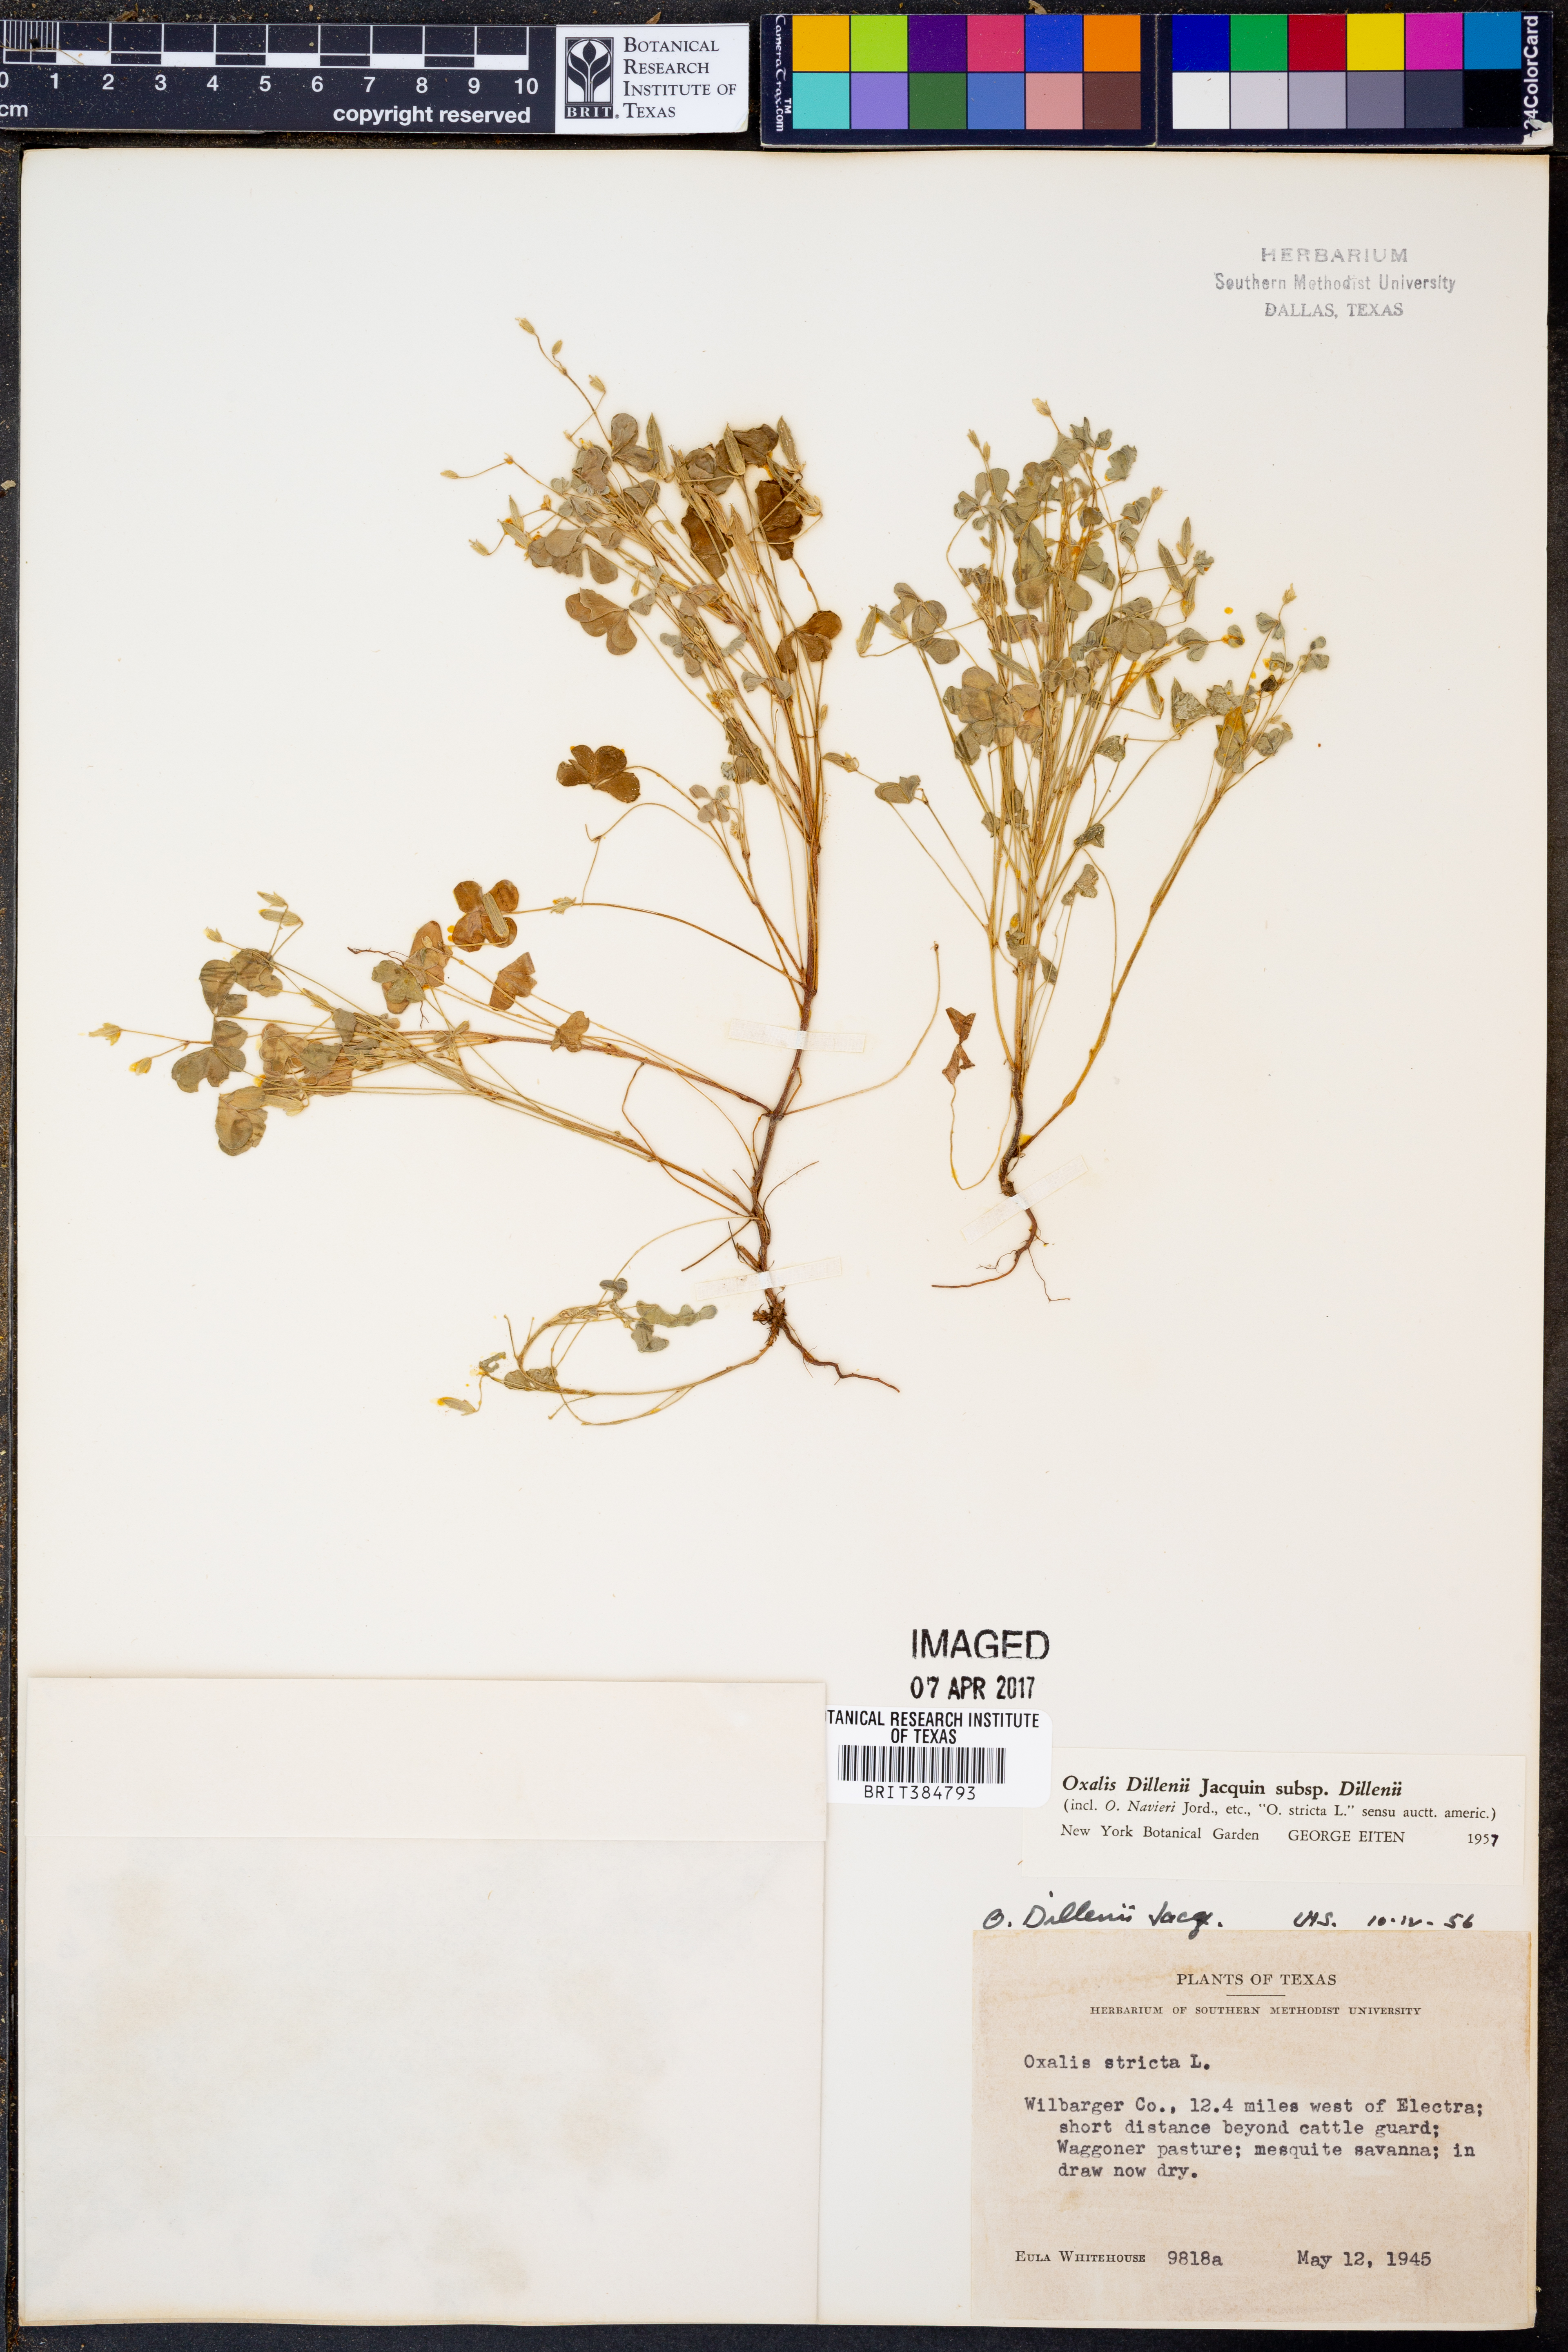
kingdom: Plantae
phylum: Tracheophyta
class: Magnoliopsida
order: Oxalidales
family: Oxalidaceae
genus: Oxalis
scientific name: Oxalis dillenii
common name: Sussex yellow-sorrel
